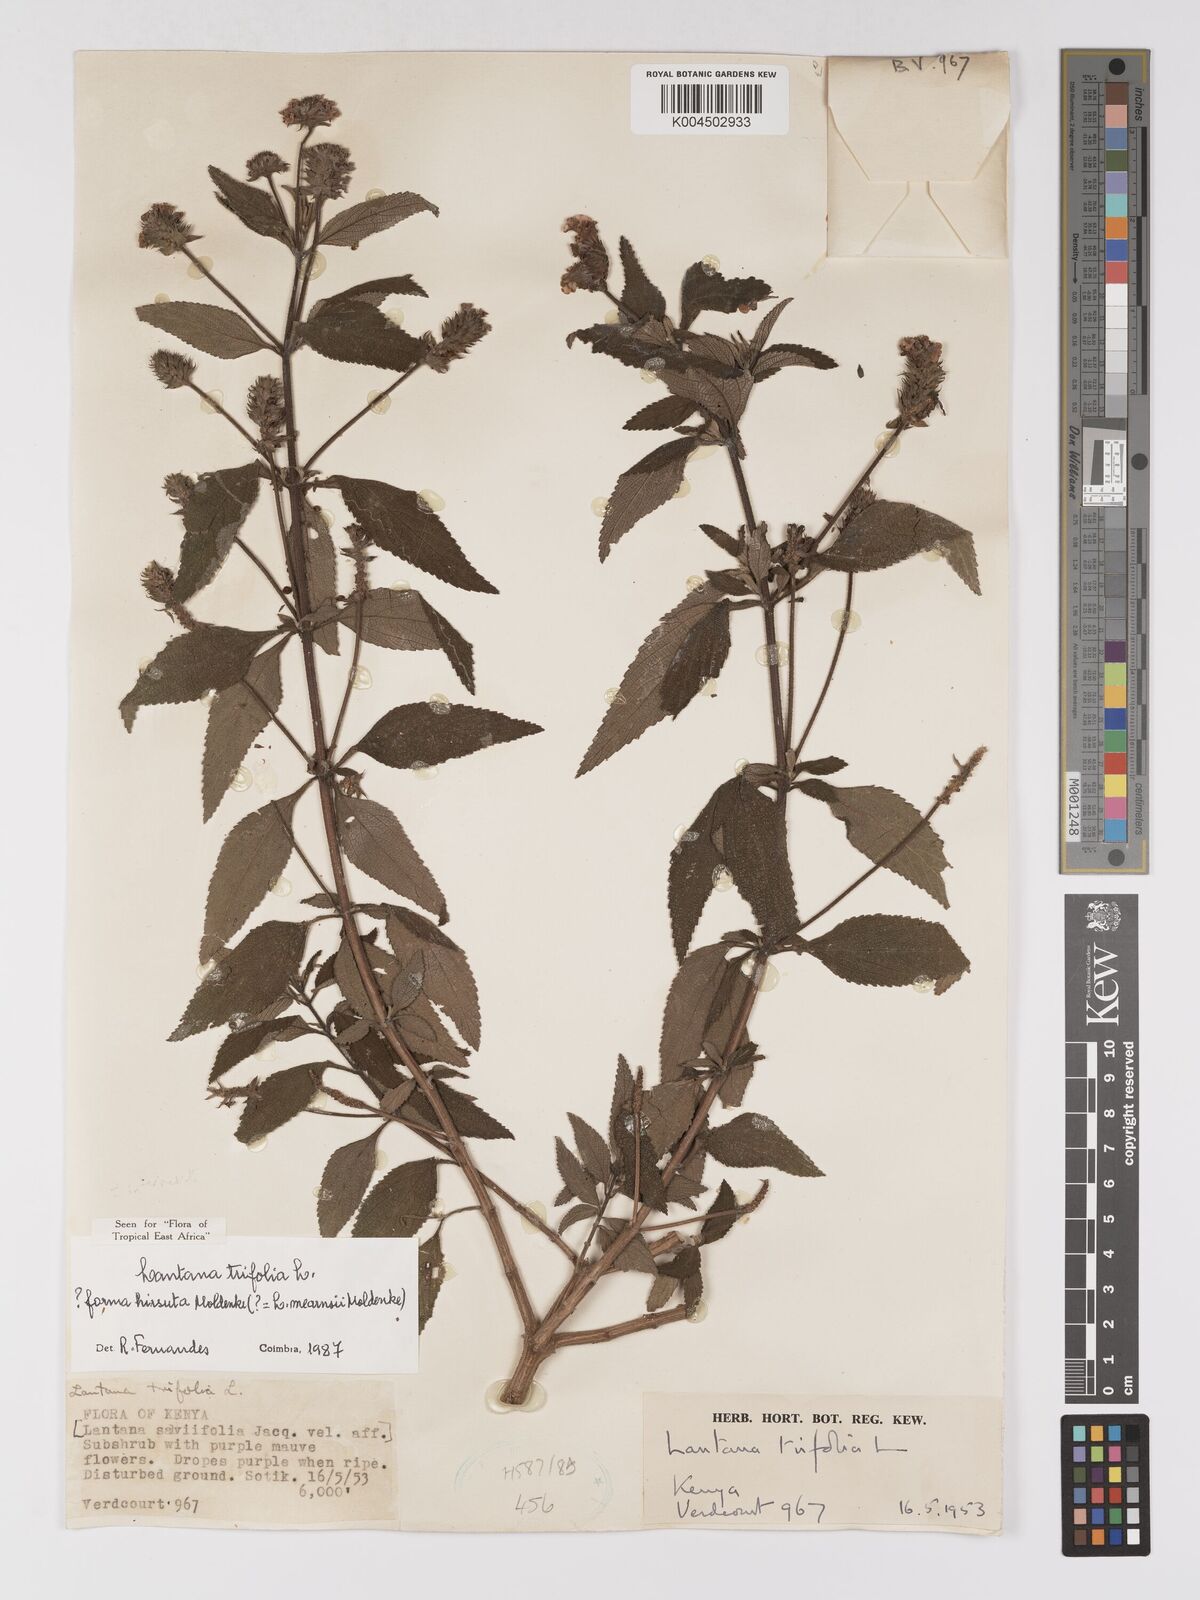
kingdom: Plantae
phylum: Tracheophyta
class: Magnoliopsida
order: Lamiales
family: Verbenaceae
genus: Lantana
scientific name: Lantana trifolia
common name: Sweet-sage
